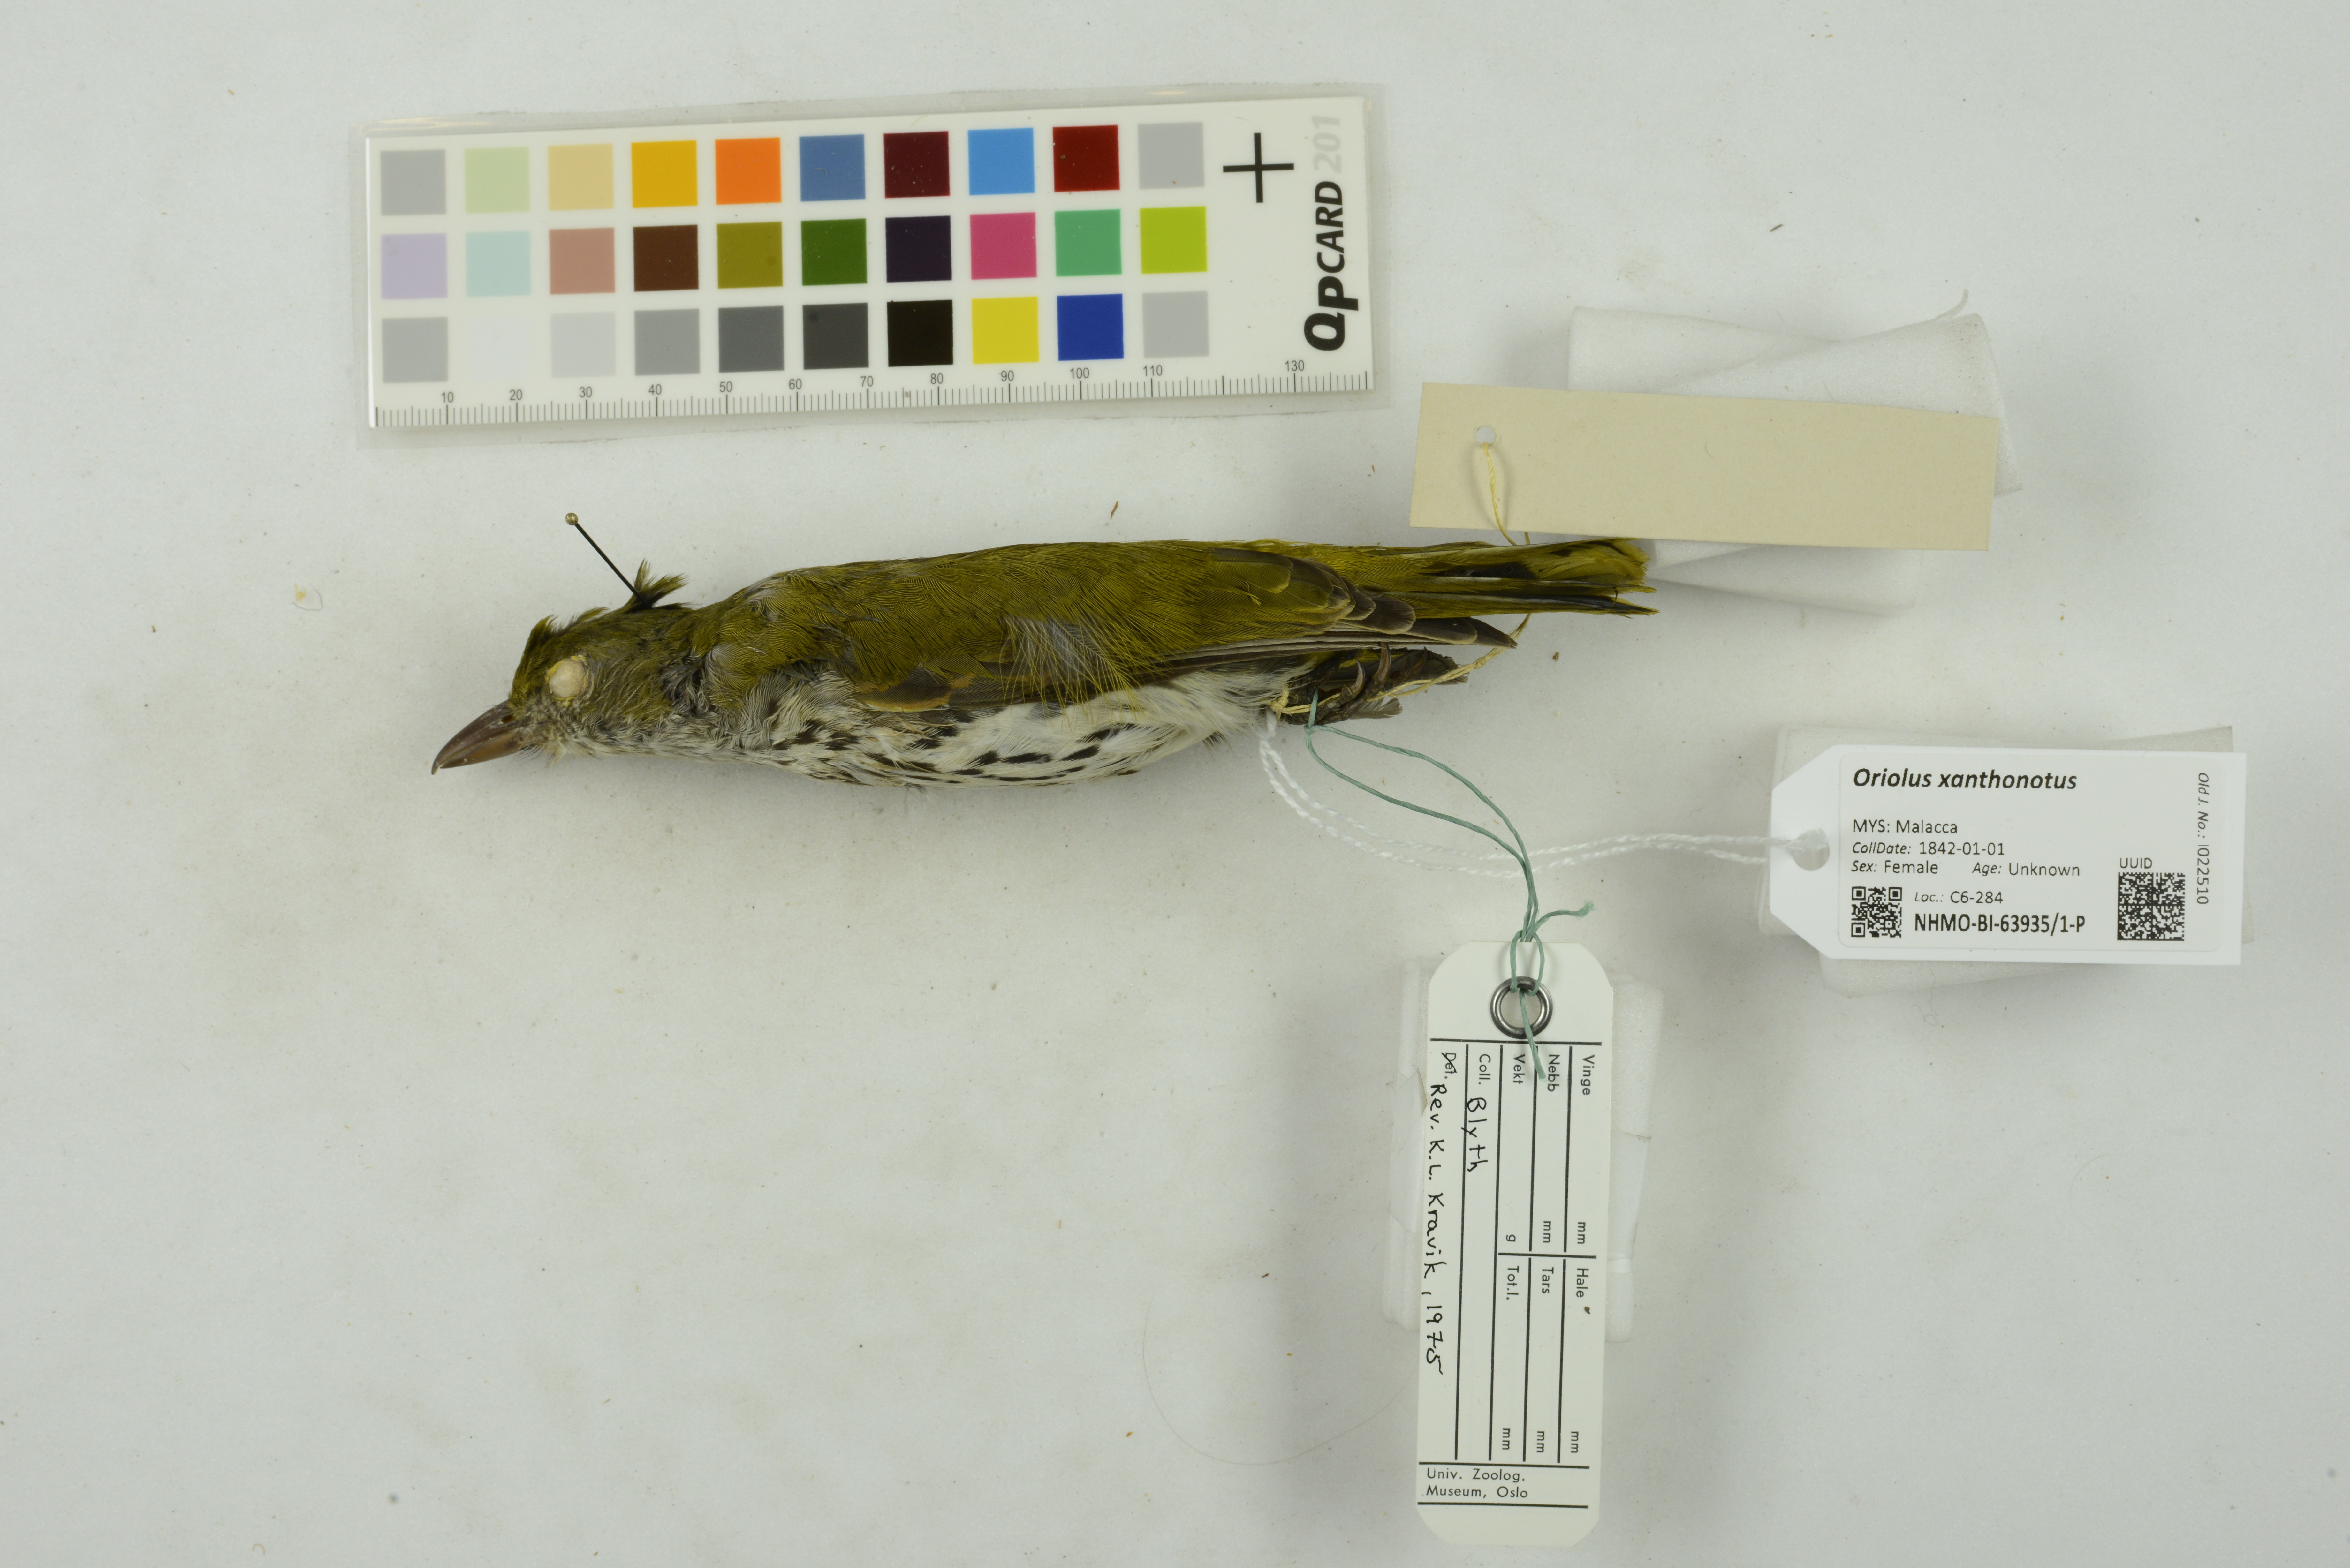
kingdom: Animalia
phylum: Chordata
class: Aves
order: Passeriformes
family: Oriolidae
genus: Oriolus
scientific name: Oriolus xanthonotus
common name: Dark-throated oriole
